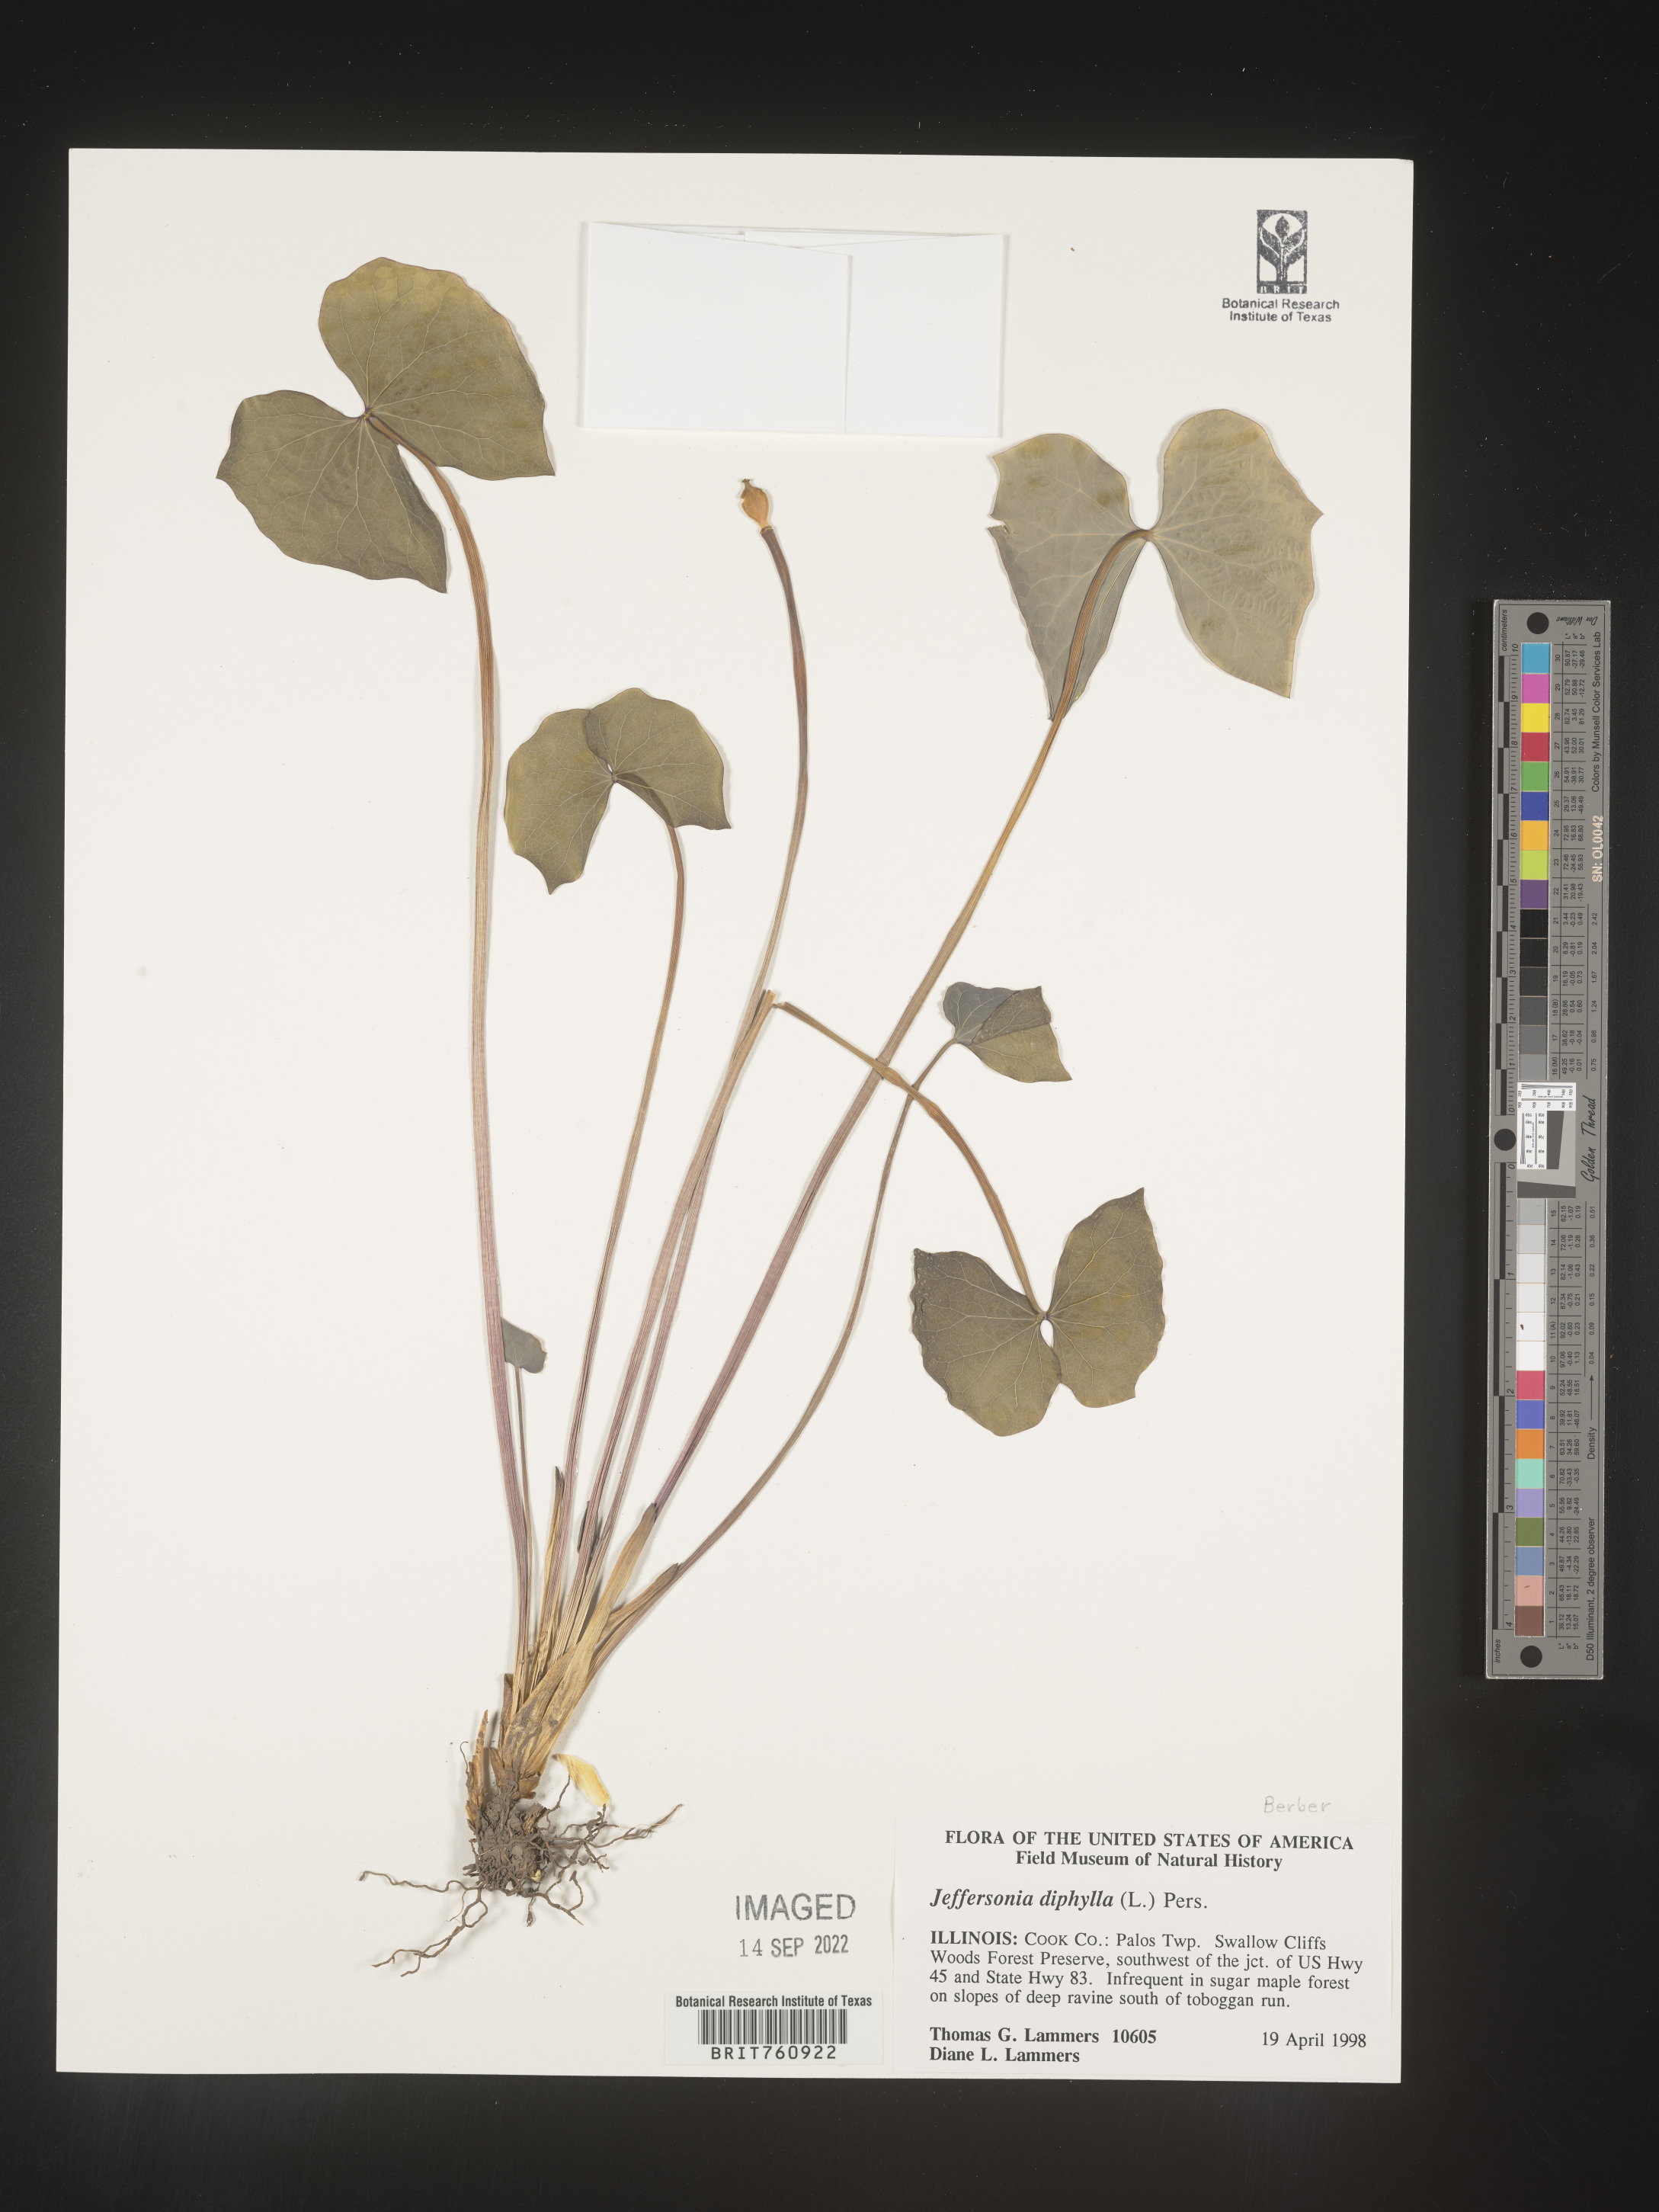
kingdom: Plantae
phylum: Tracheophyta
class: Magnoliopsida
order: Ranunculales
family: Berberidaceae
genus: Jeffersonia
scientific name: Jeffersonia
